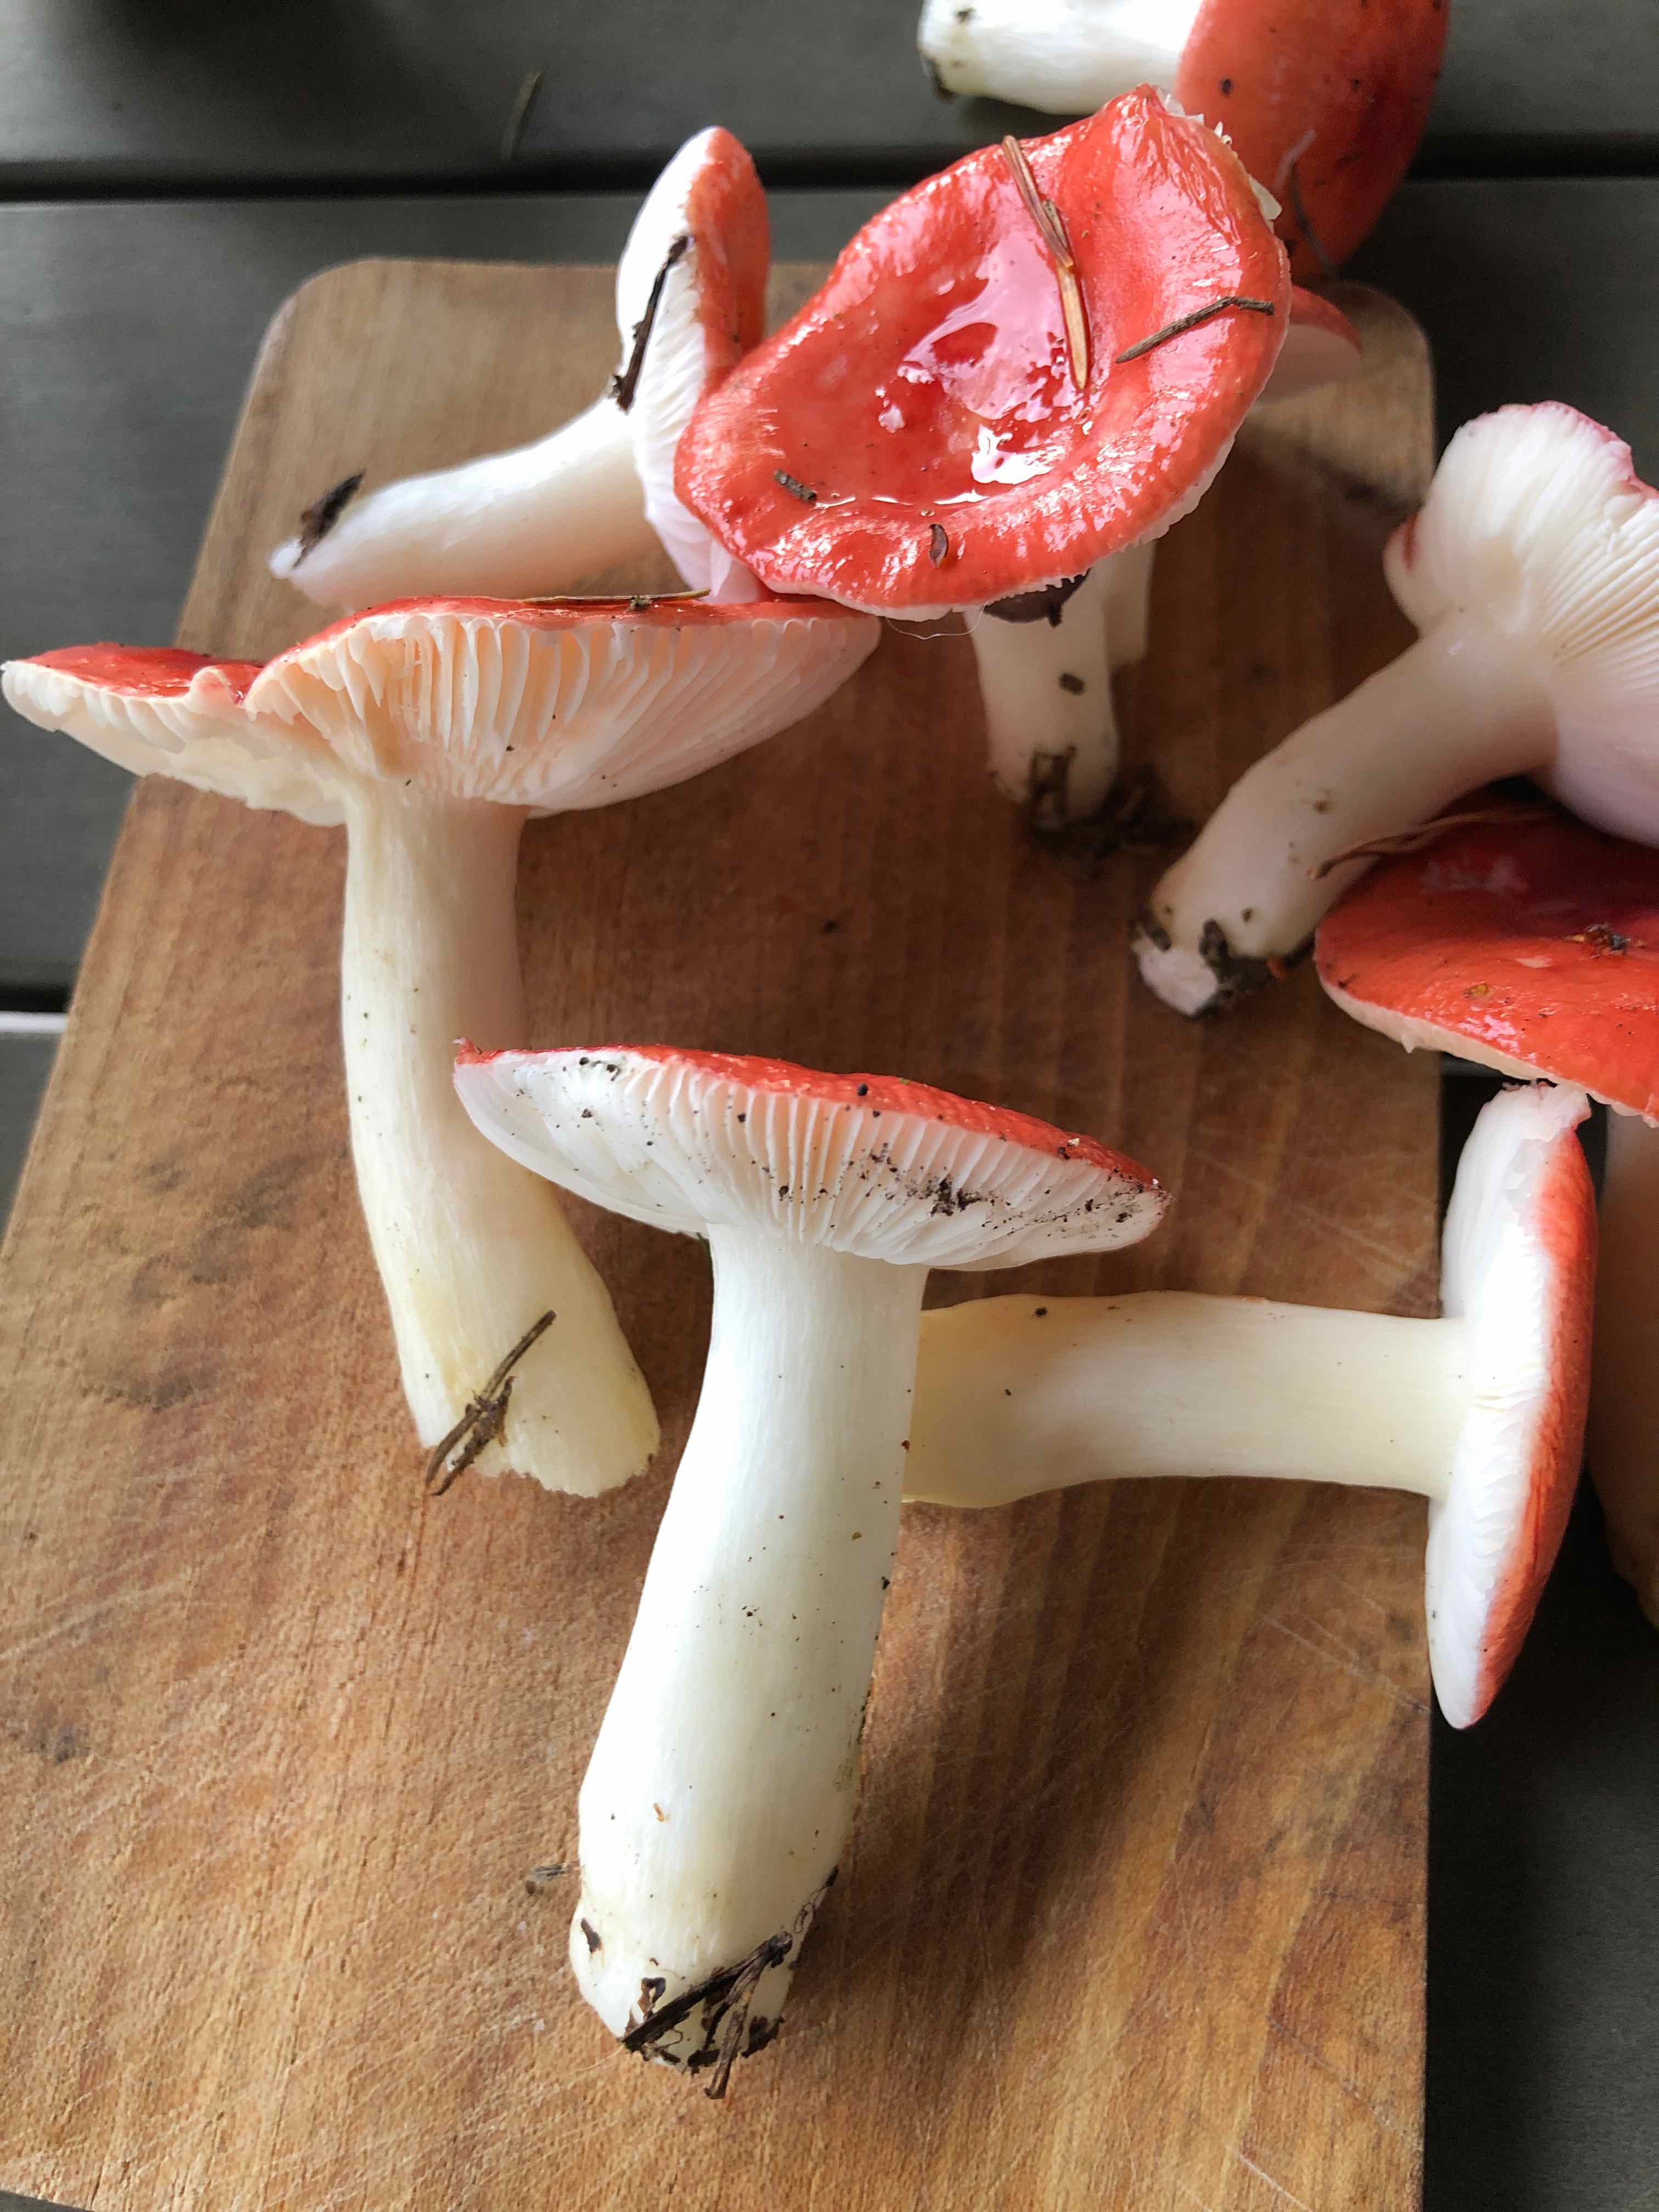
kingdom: Fungi
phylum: Basidiomycota
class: Agaricomycetes
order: Russulales
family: Russulaceae
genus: Russula
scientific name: Russula emetica
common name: stor gift-skørhat
